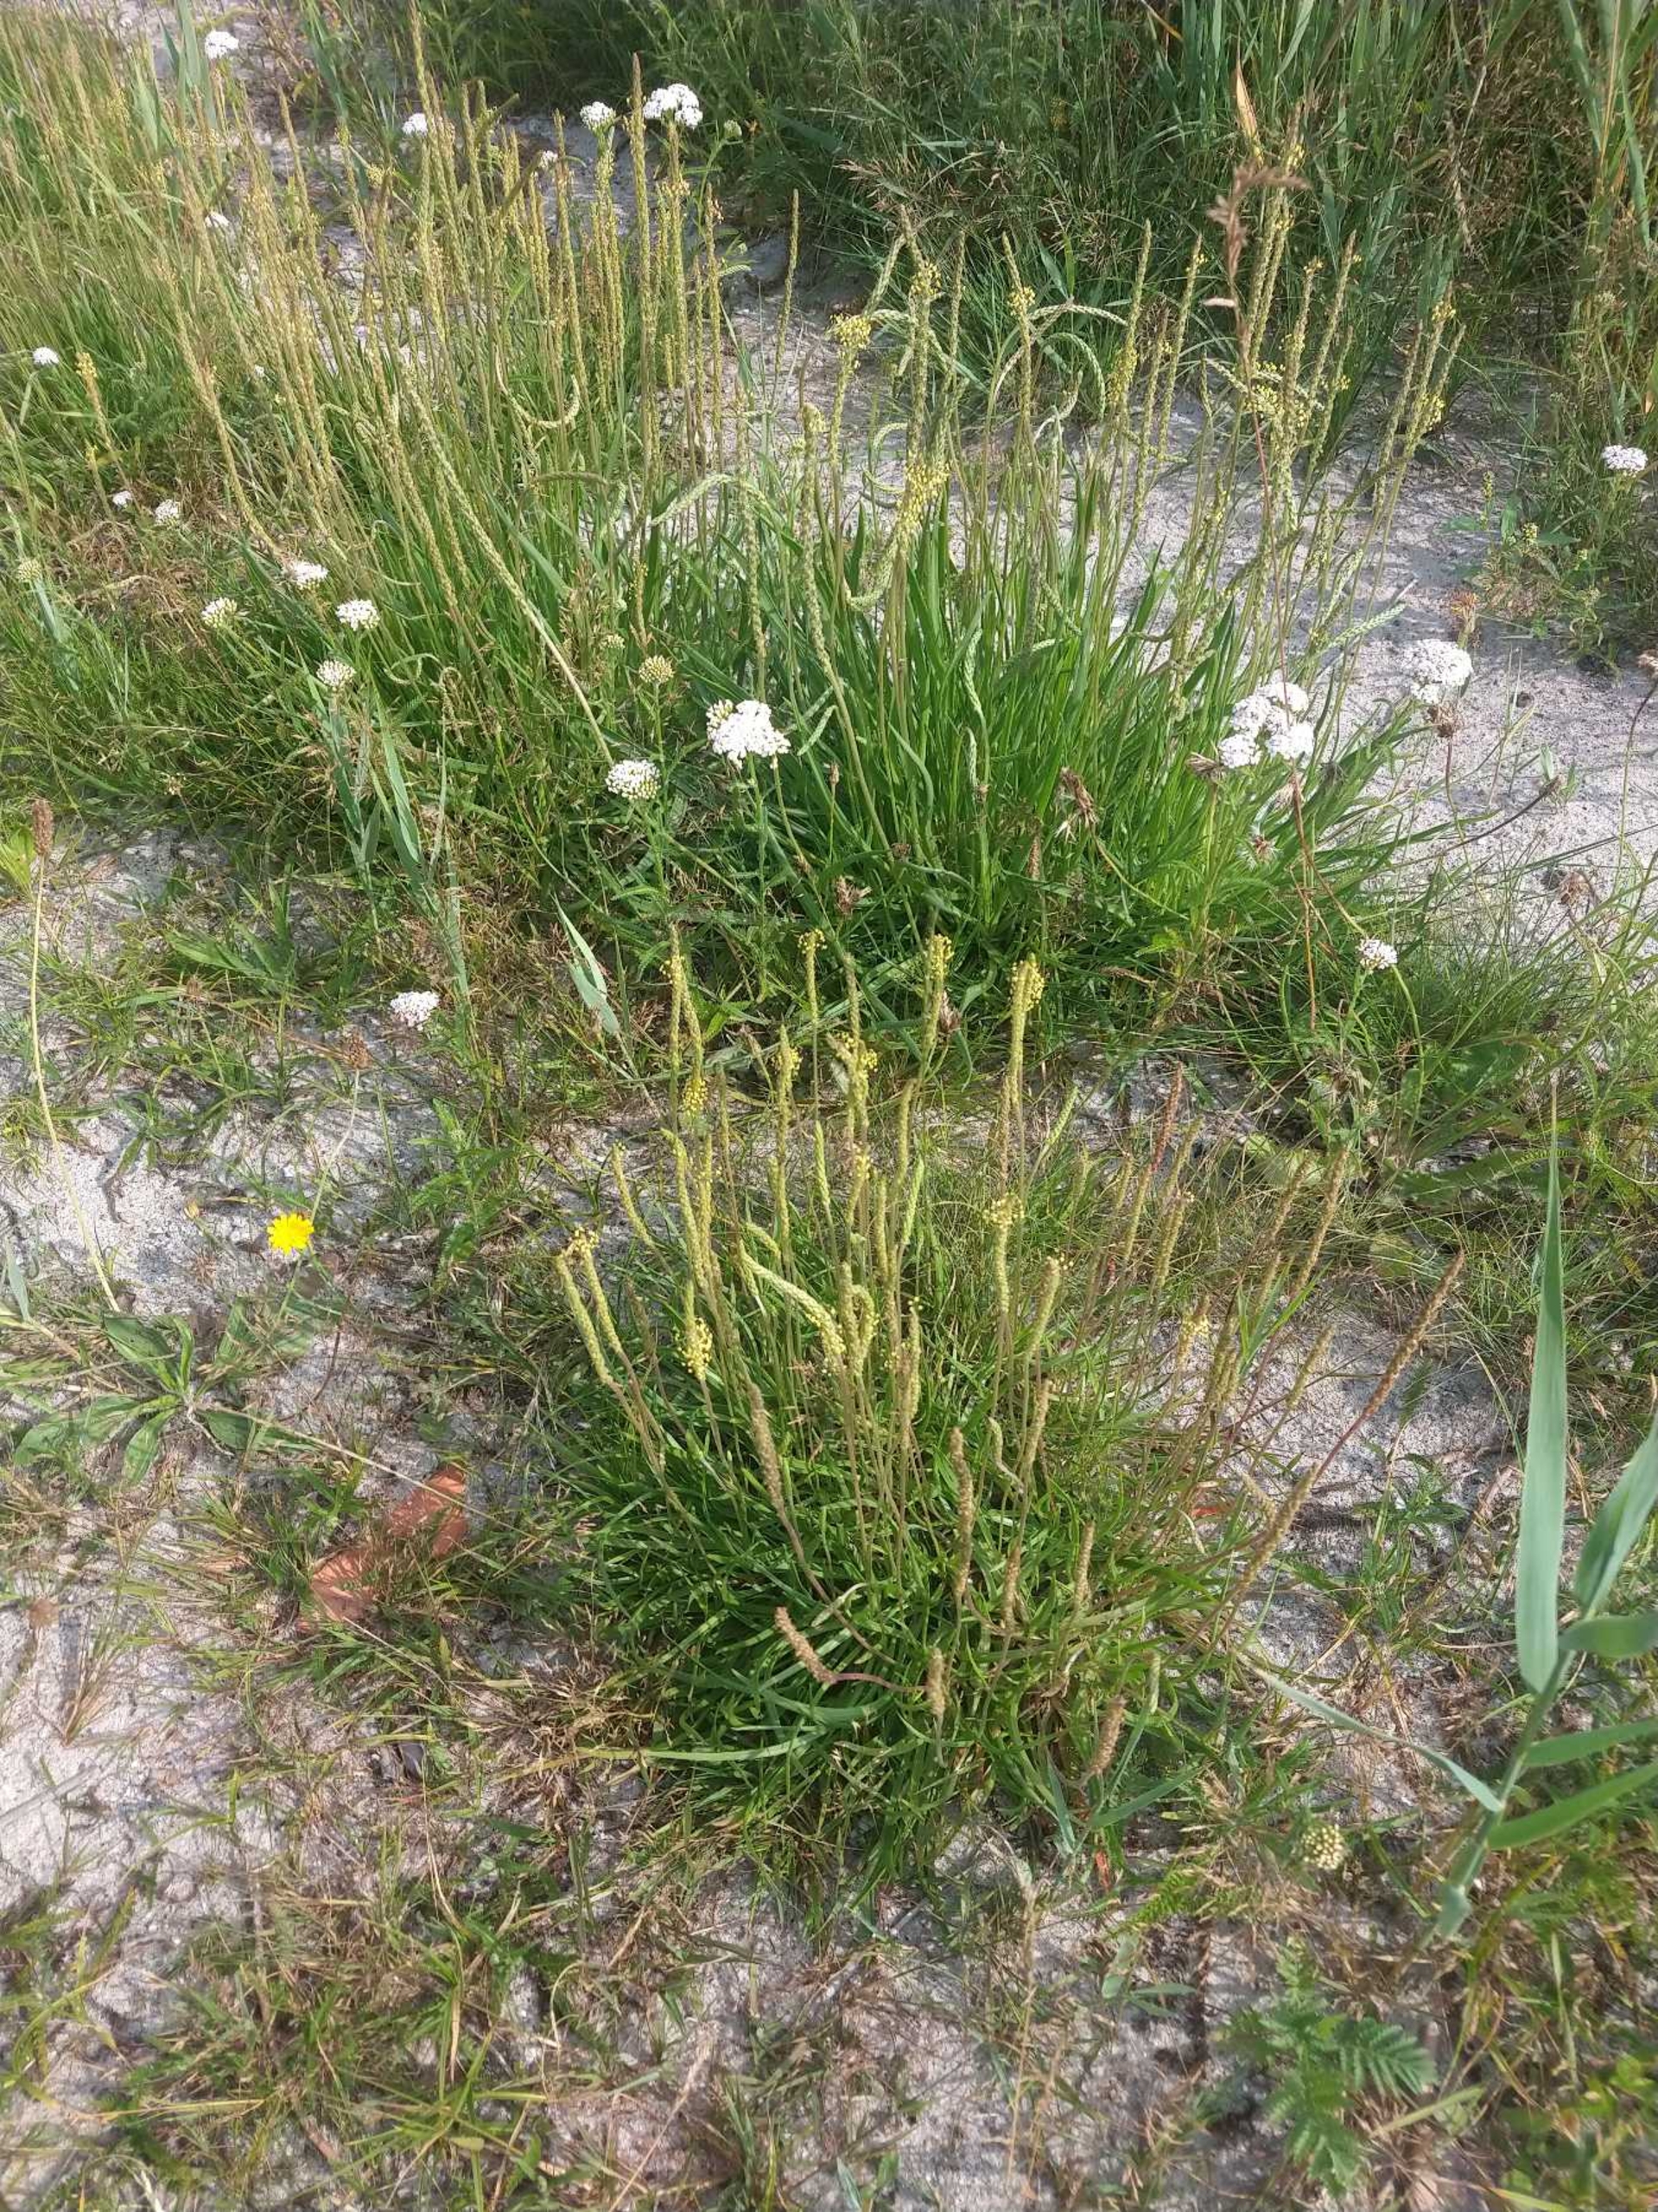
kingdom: Plantae
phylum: Tracheophyta
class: Magnoliopsida
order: Lamiales
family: Plantaginaceae
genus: Plantago
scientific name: Plantago maritima
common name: Strand-vejbred
